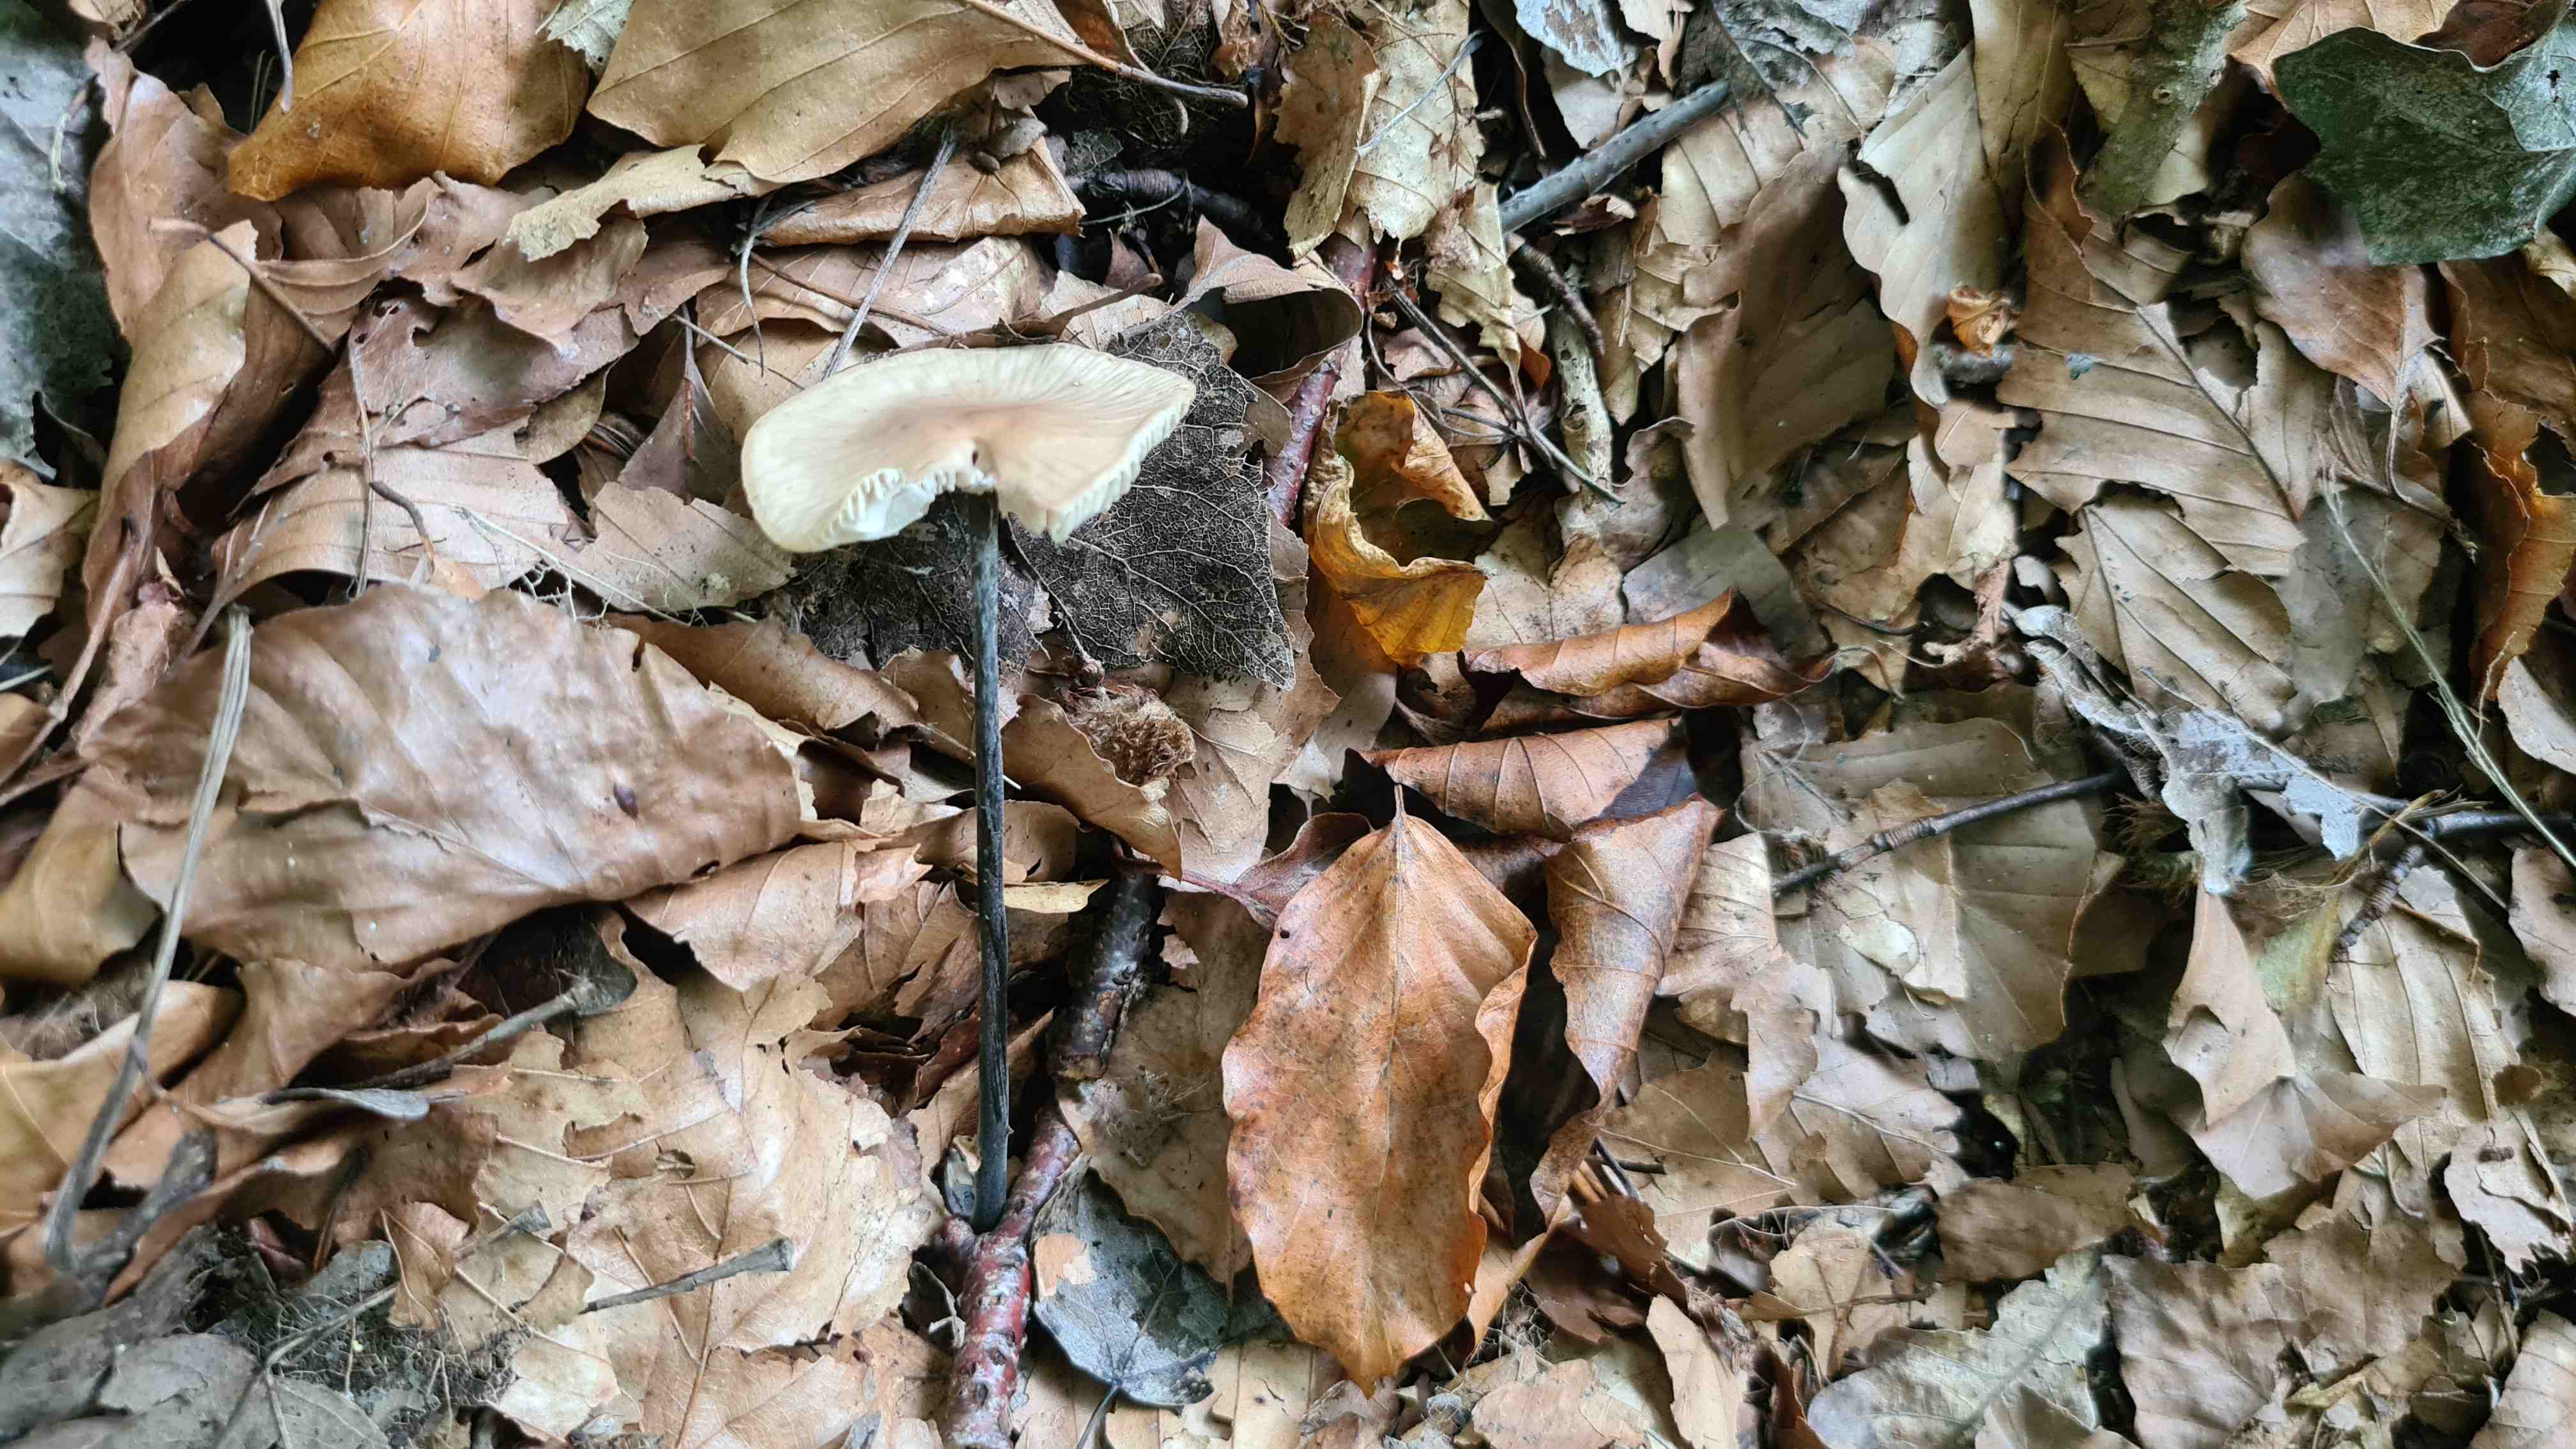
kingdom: Fungi
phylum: Basidiomycota
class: Agaricomycetes
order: Agaricales
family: Omphalotaceae
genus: Mycetinis
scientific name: Mycetinis alliaceus
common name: stor løghat
